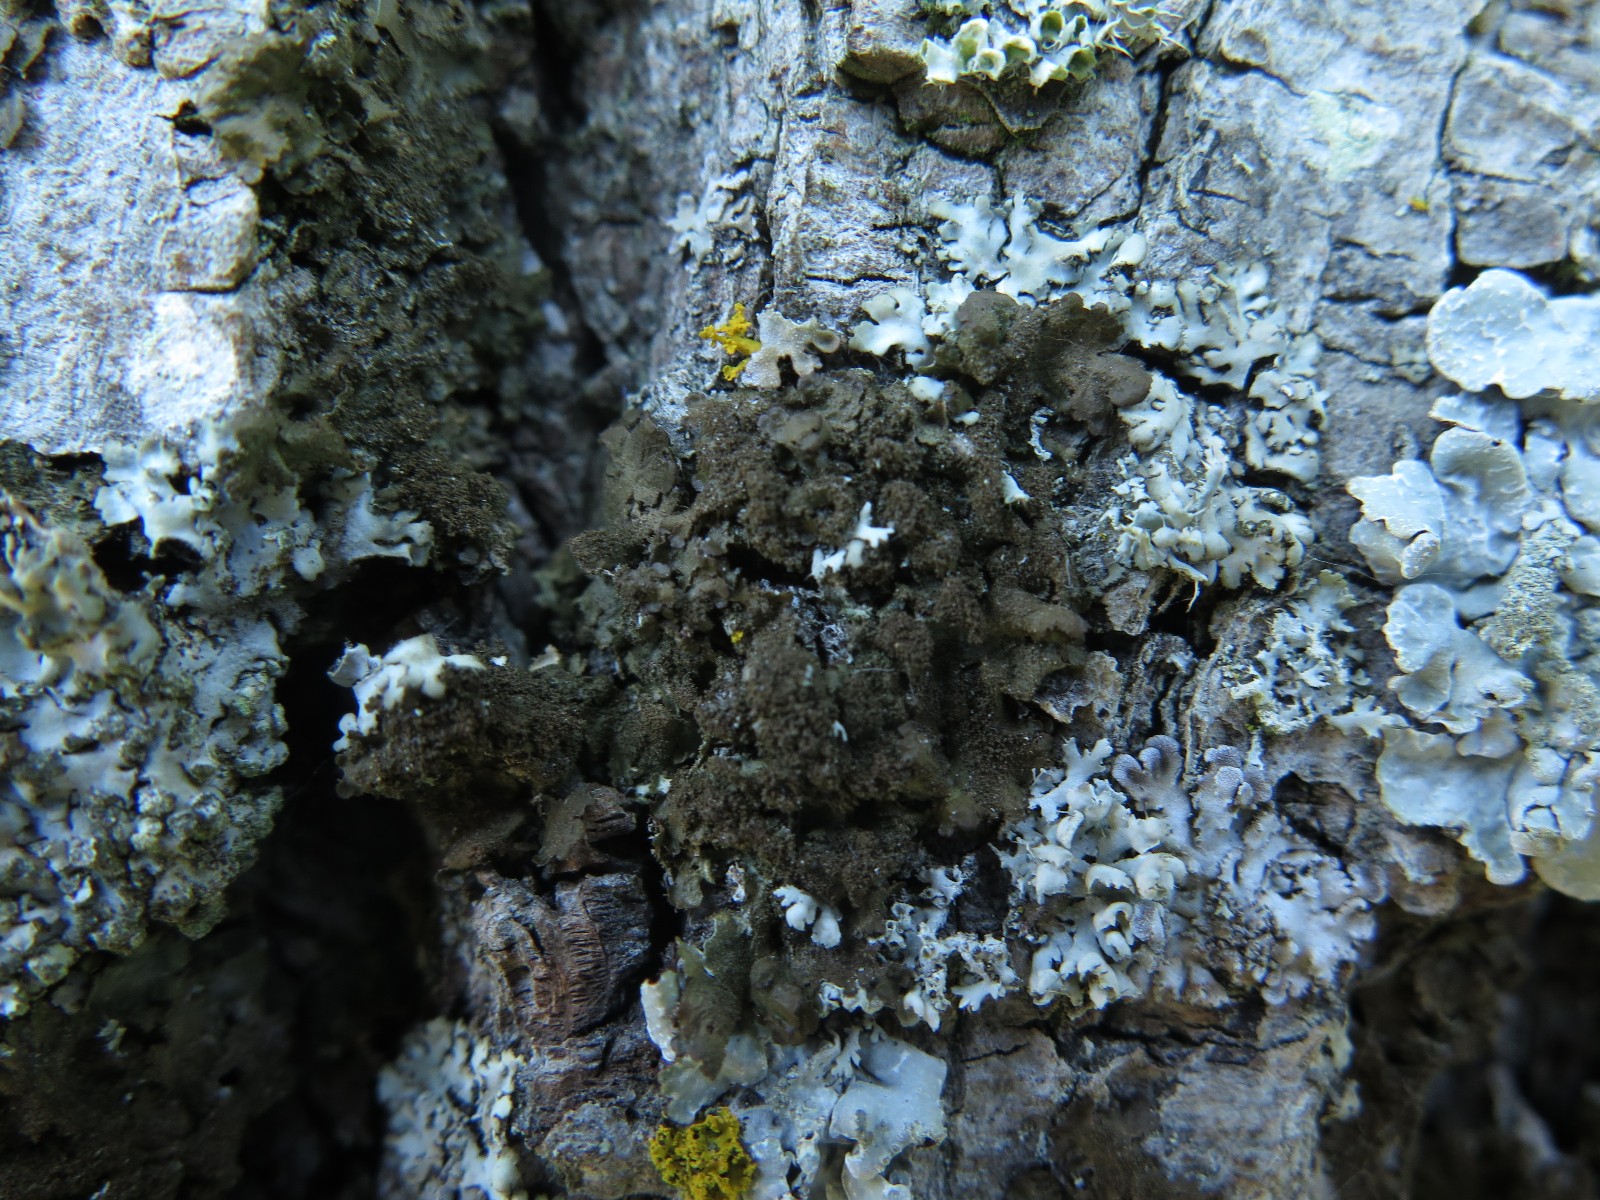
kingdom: Fungi
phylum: Ascomycota
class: Lecanoromycetes
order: Lecanorales
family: Parmeliaceae
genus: Melanohalea
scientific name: Melanohalea exasperatula
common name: kølle-skållav
